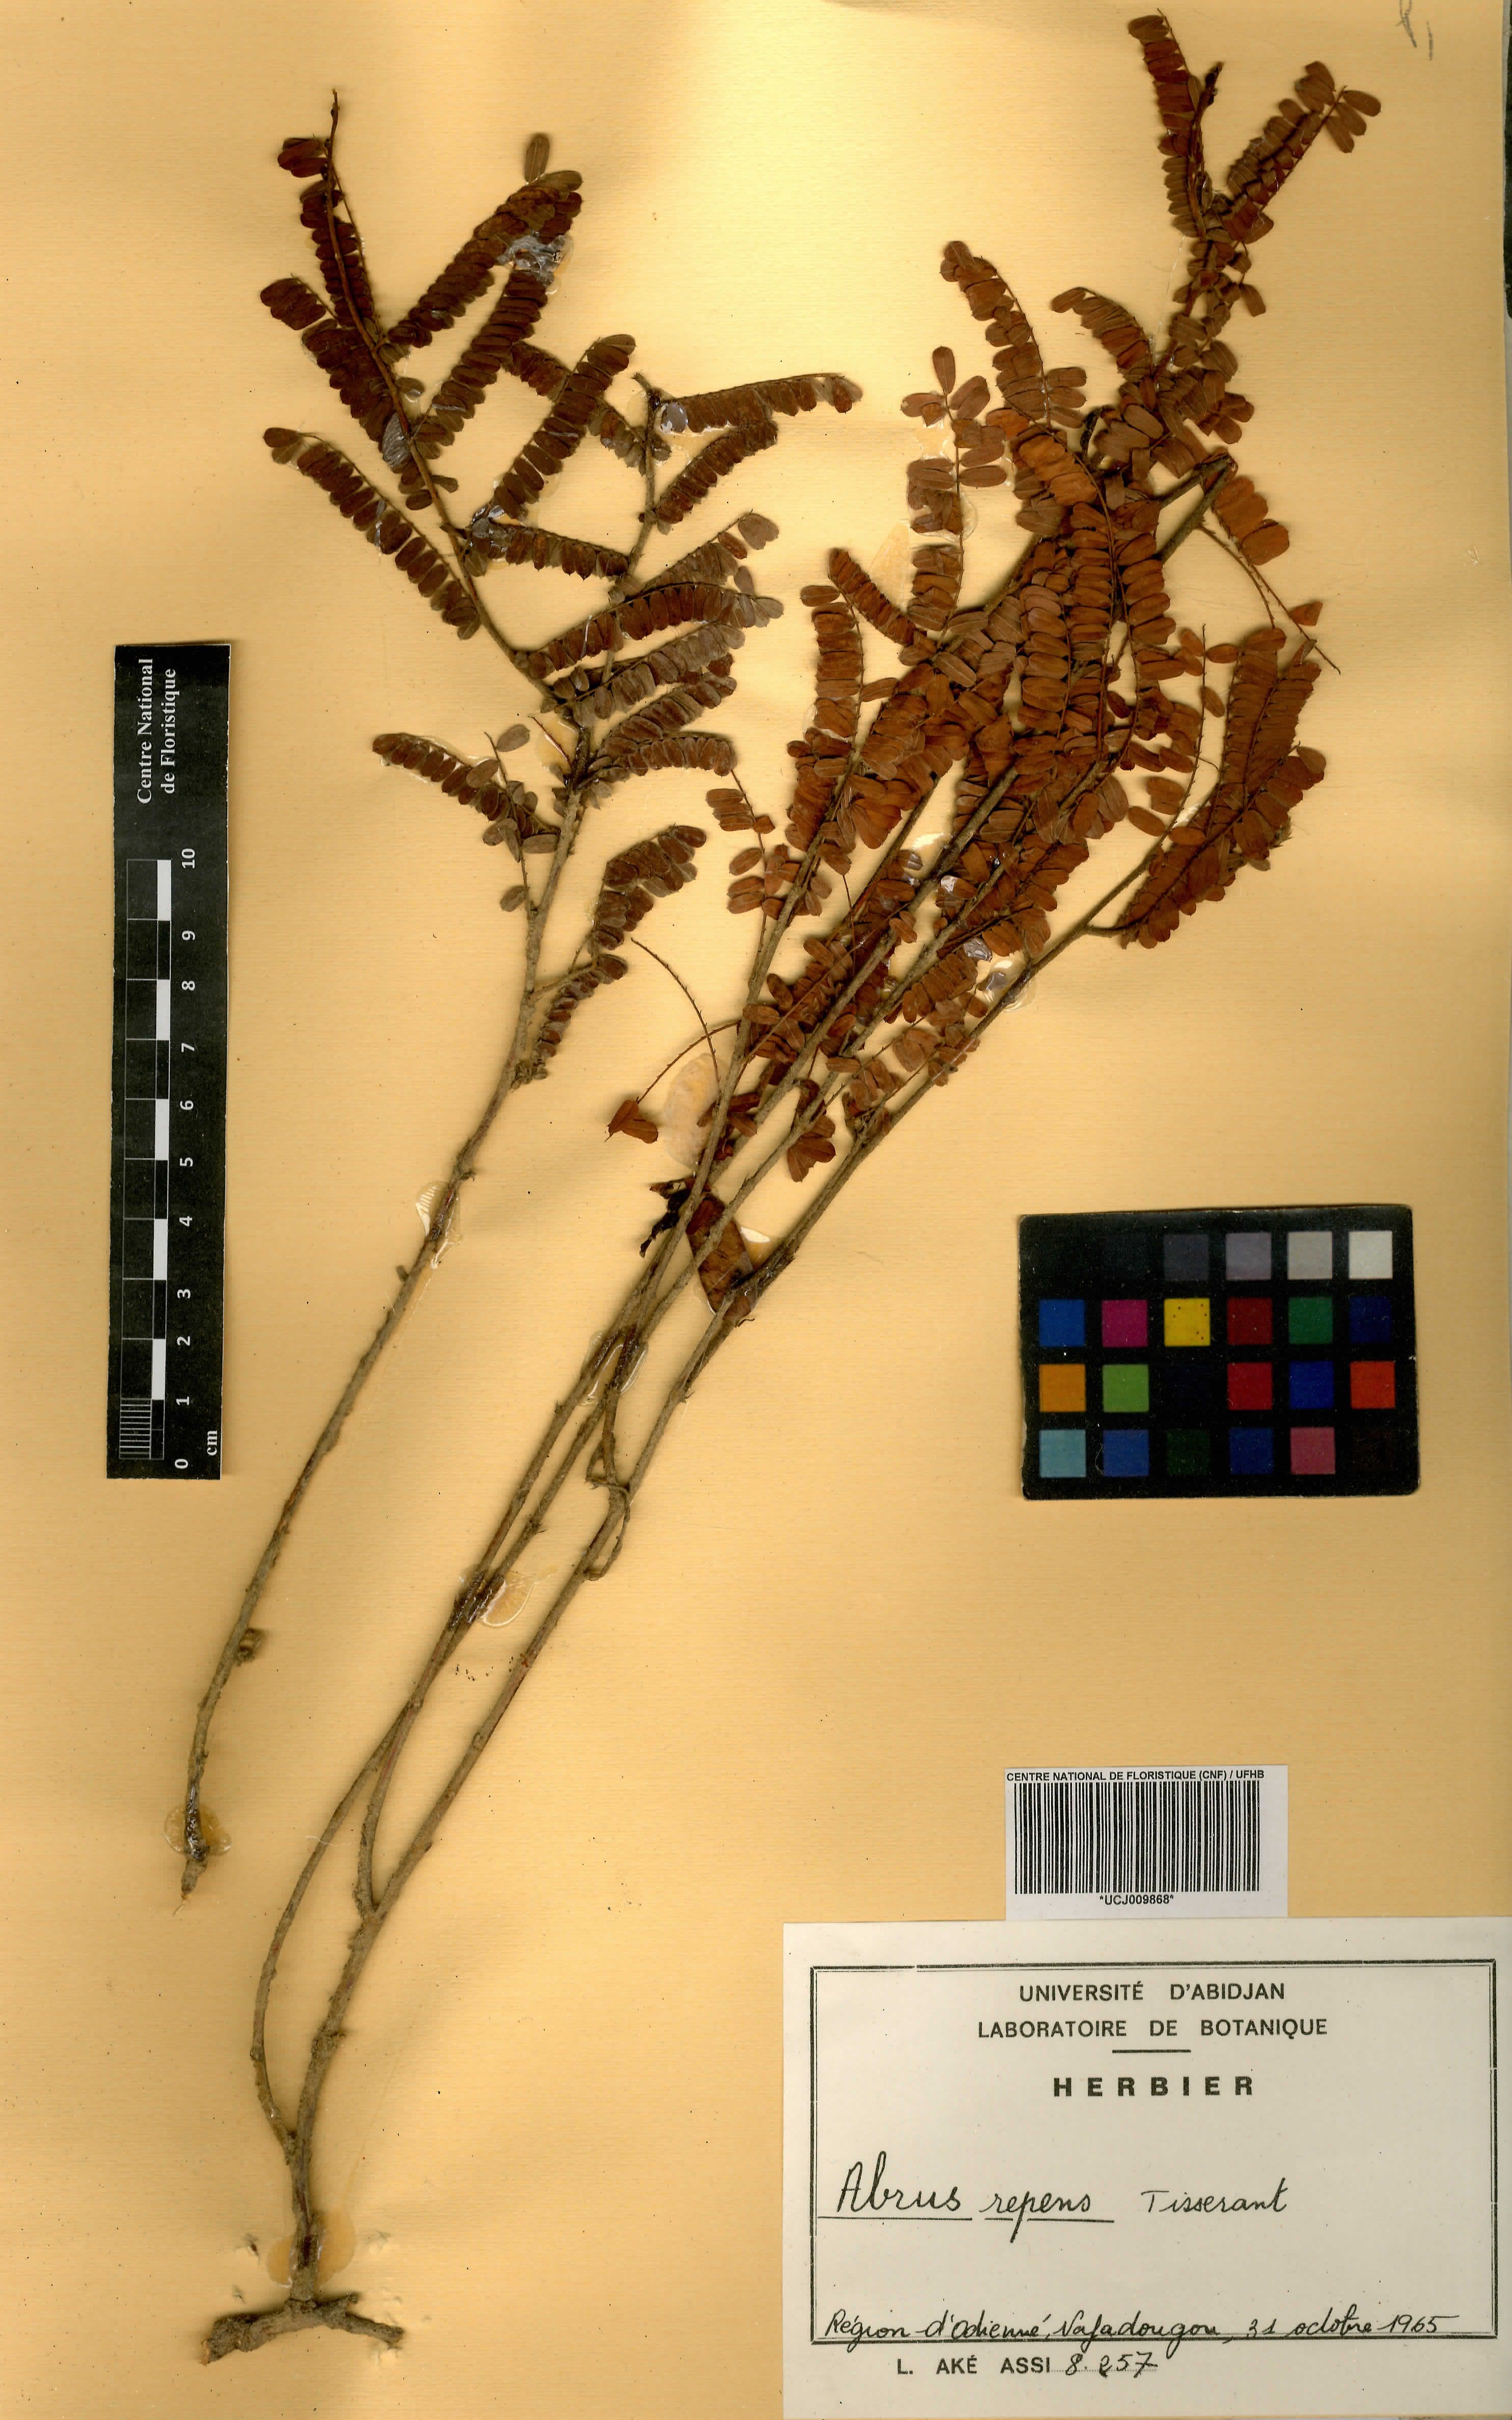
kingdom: Plantae
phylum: Tracheophyta
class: Magnoliopsida
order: Fabales
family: Fabaceae
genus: Abrus
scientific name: Abrus melanospermus
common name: Licorice-root
